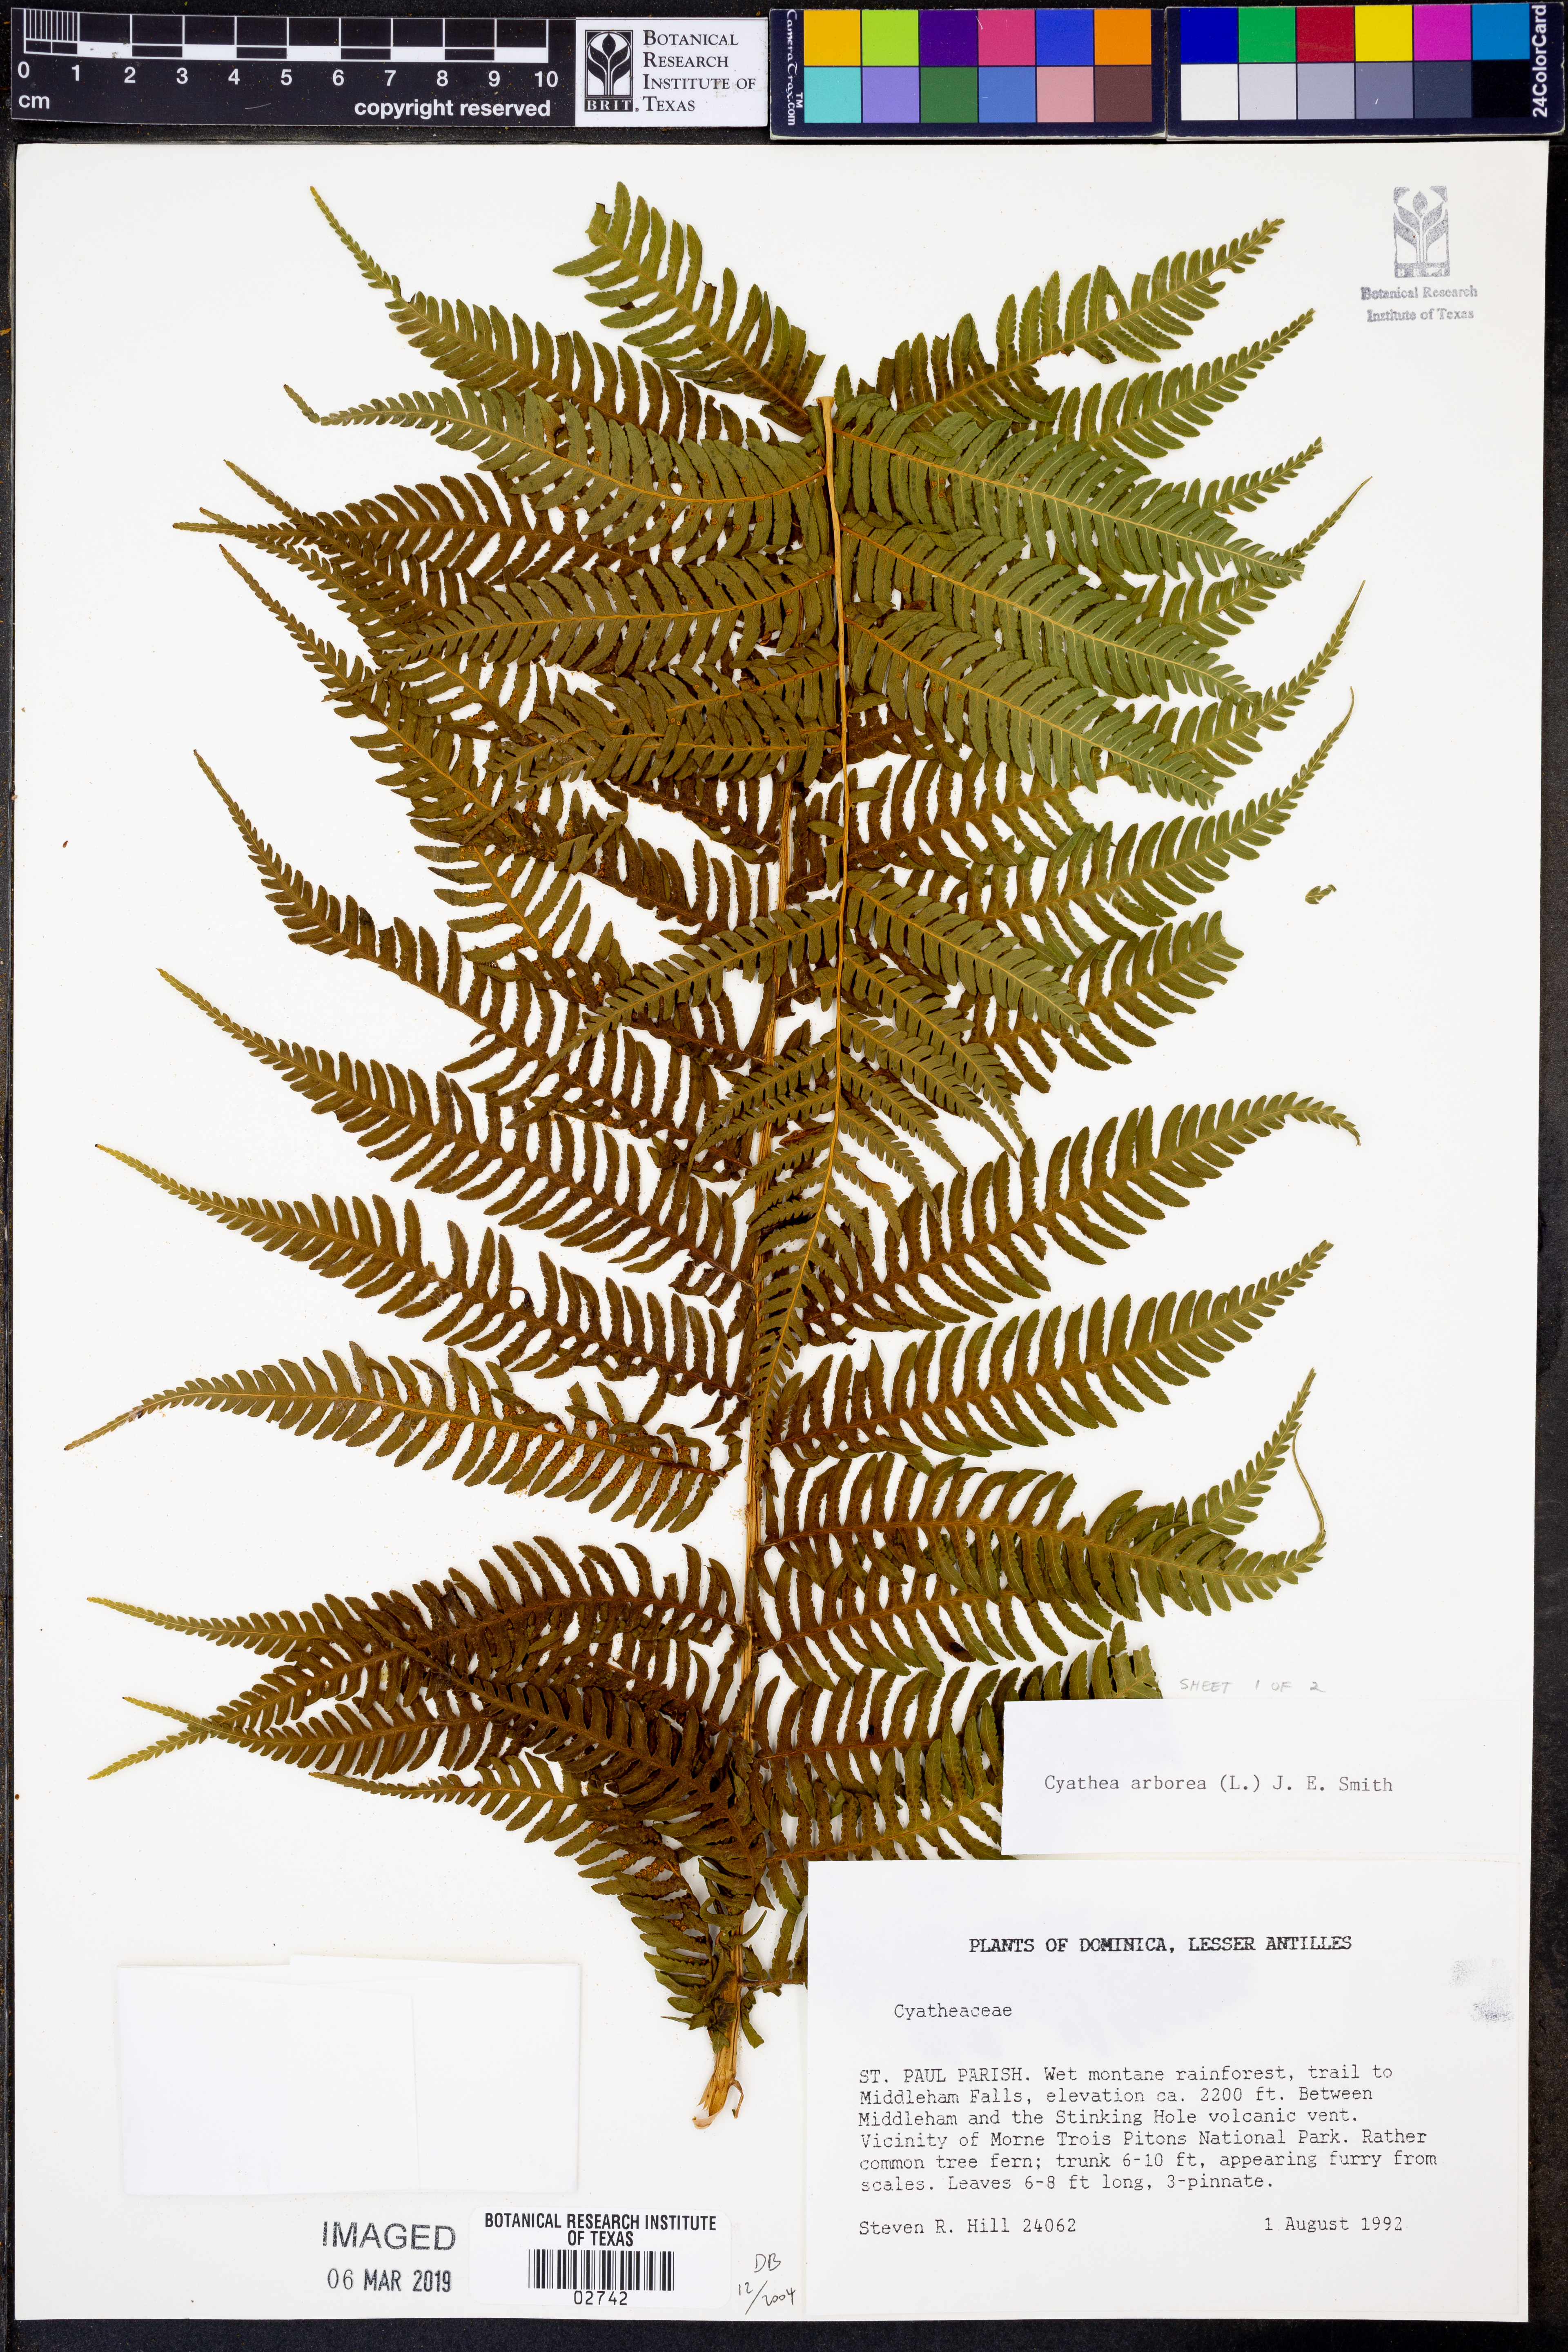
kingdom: Plantae
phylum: Tracheophyta
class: Polypodiopsida
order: Cyatheales
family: Cyatheaceae
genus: Cyathea
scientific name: Cyathea arborea
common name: West indian treefern
